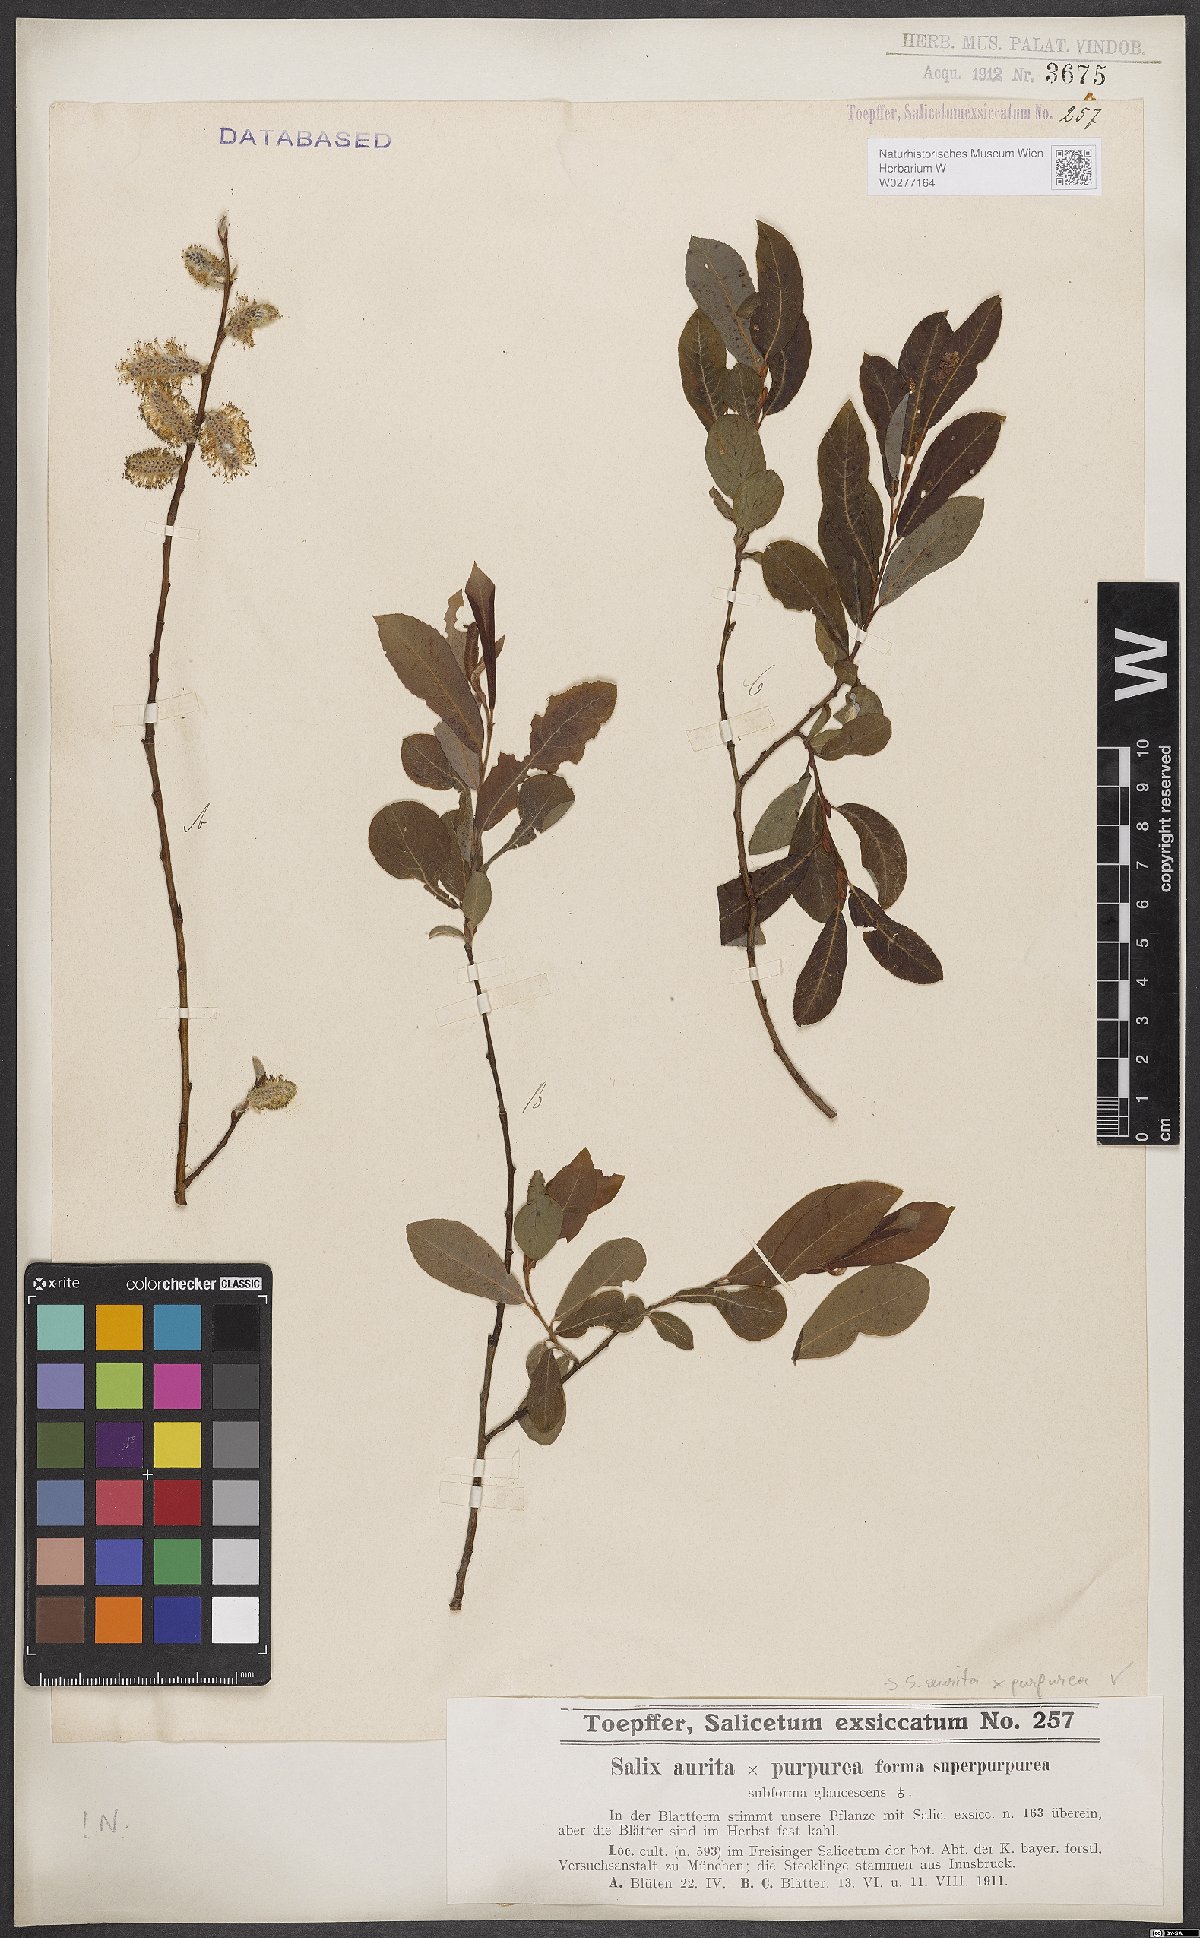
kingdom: Plantae
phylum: Tracheophyta
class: Magnoliopsida
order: Malpighiales
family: Salicaceae
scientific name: Salicaceae
